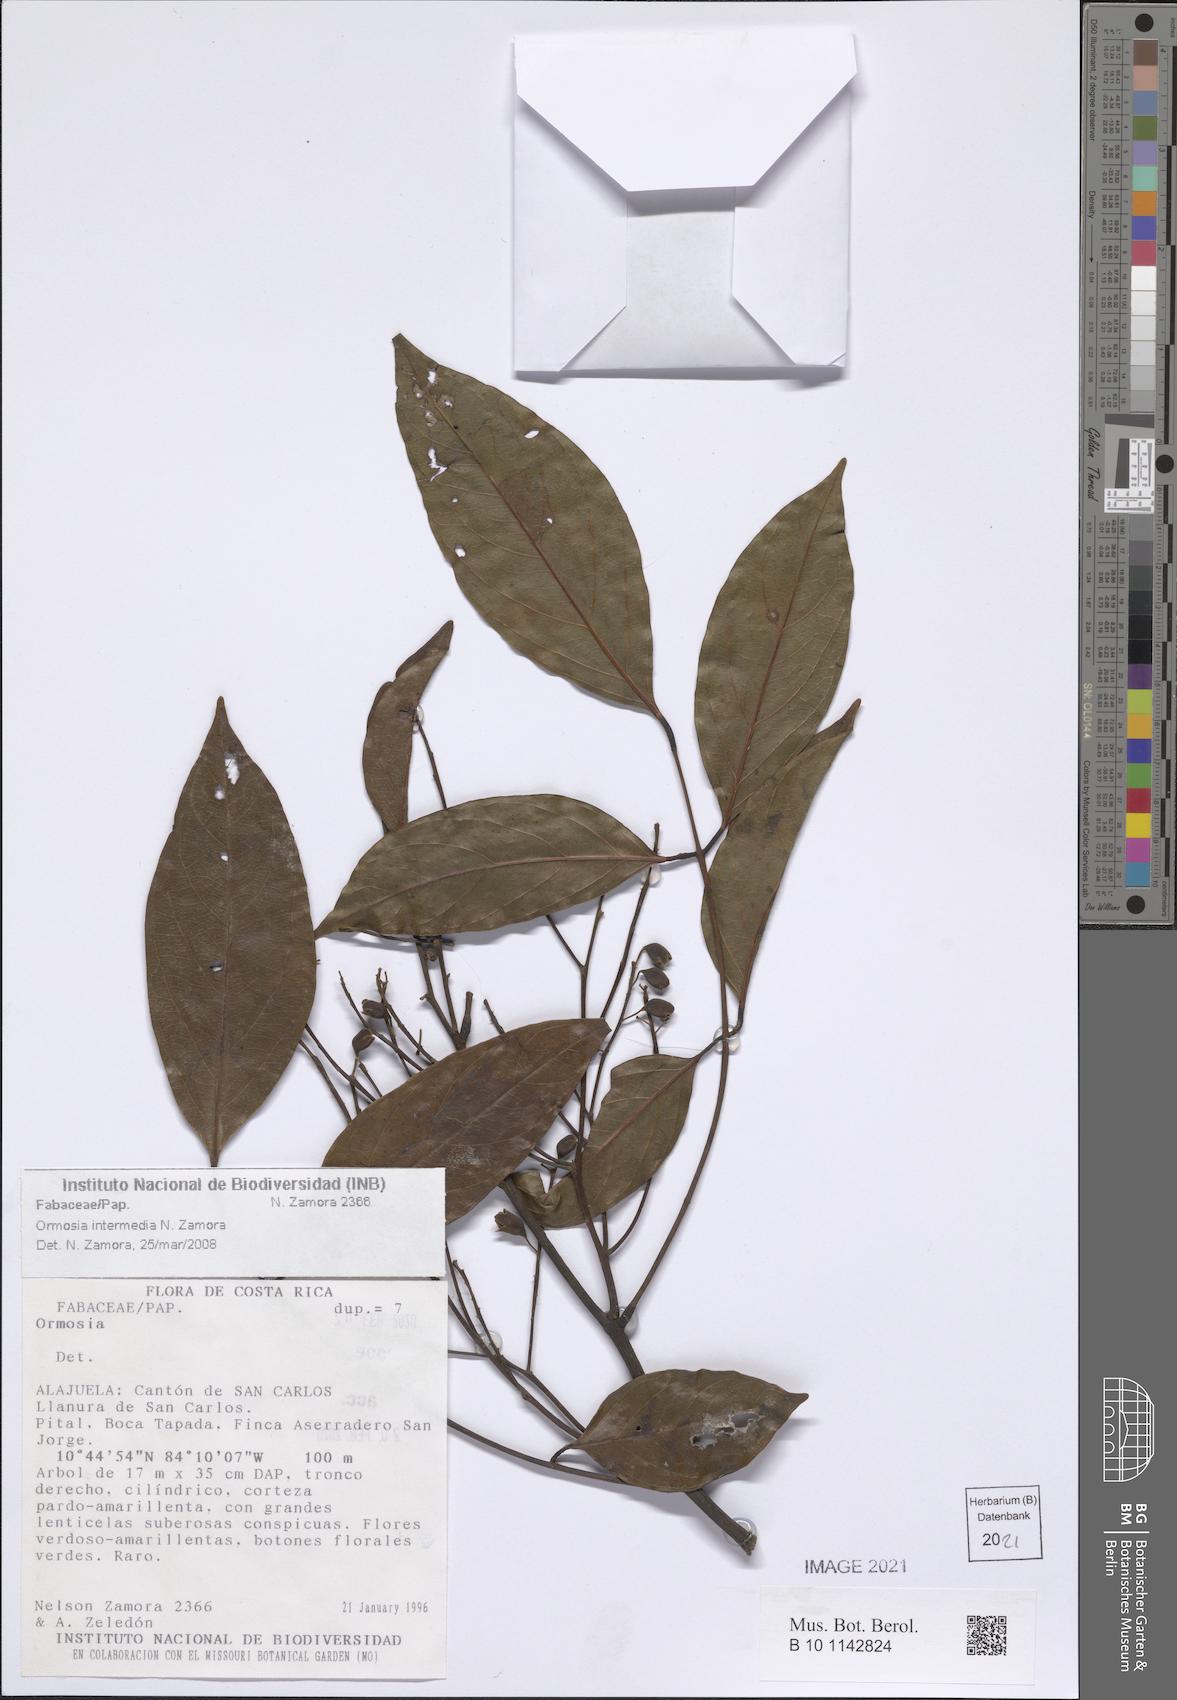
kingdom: Plantae
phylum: Tracheophyta
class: Magnoliopsida
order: Fabales
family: Fabaceae
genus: Ormosia
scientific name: Ormosia intermedia
